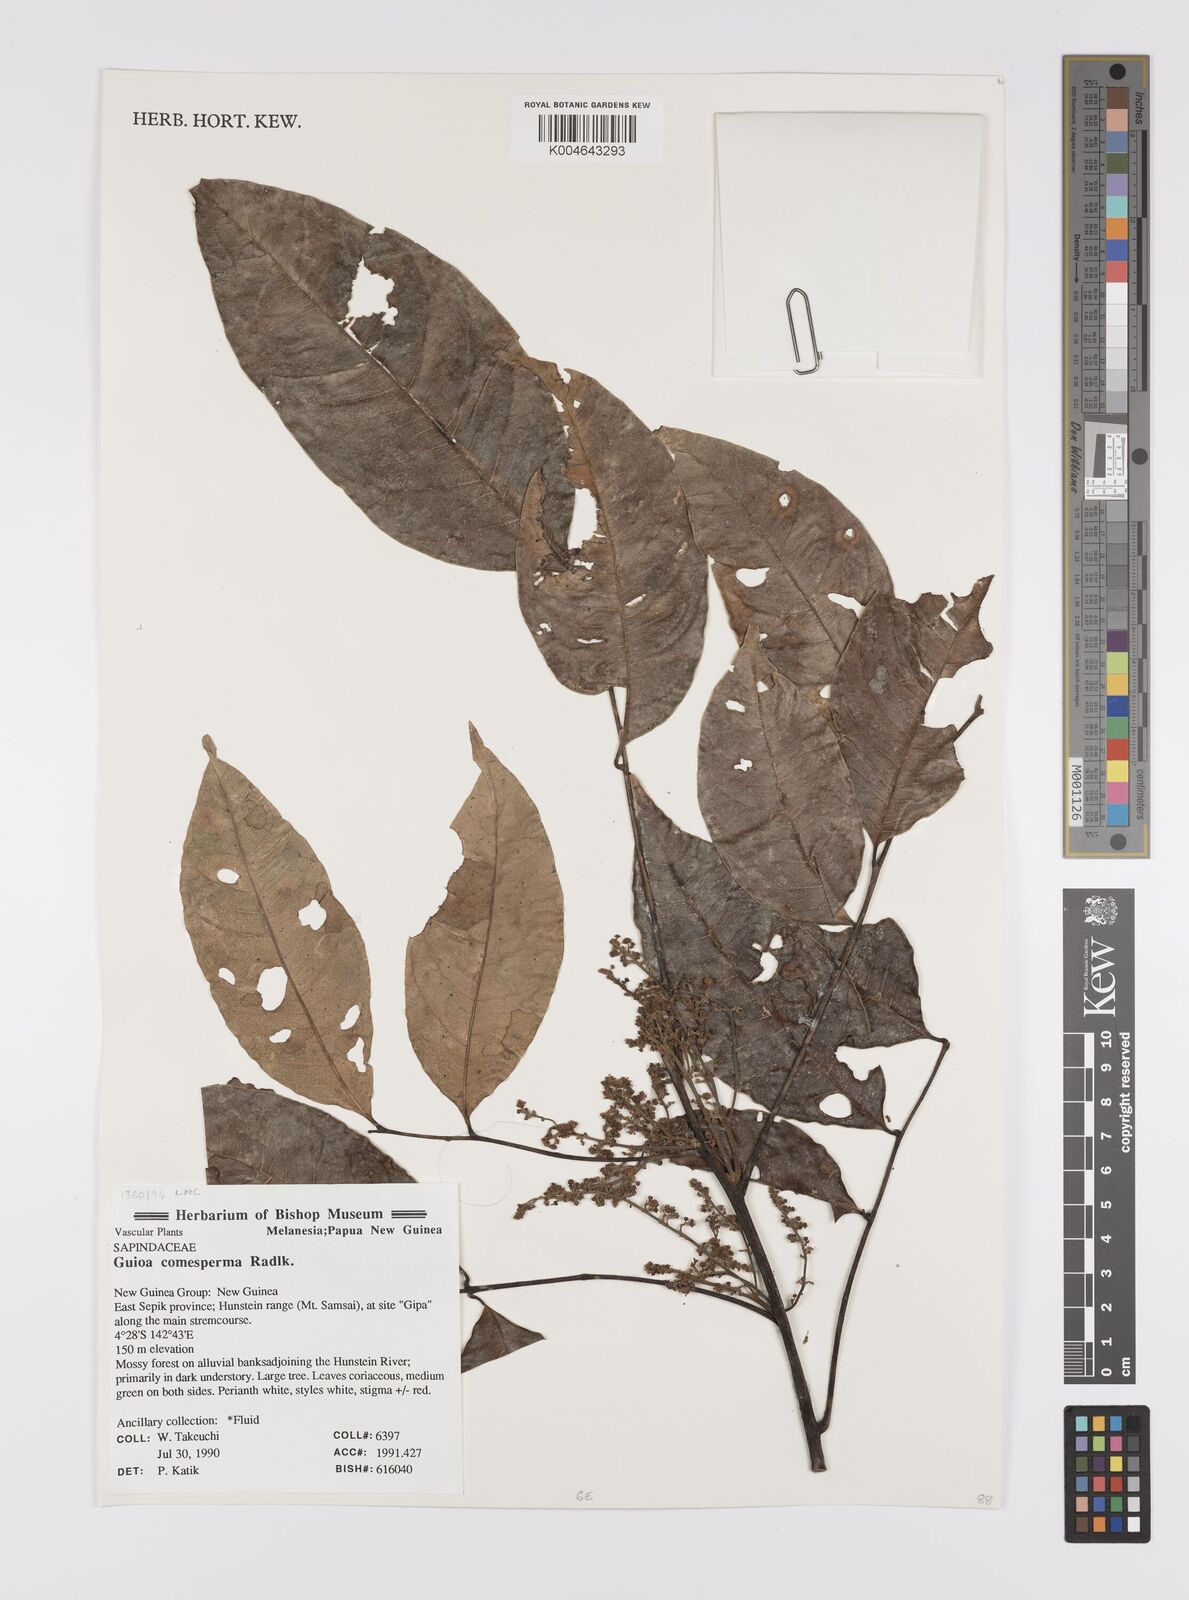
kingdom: Plantae
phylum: Tracheophyta
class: Magnoliopsida
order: Sapindales
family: Sapindaceae
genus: Guioa
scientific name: Guioa comesperma
